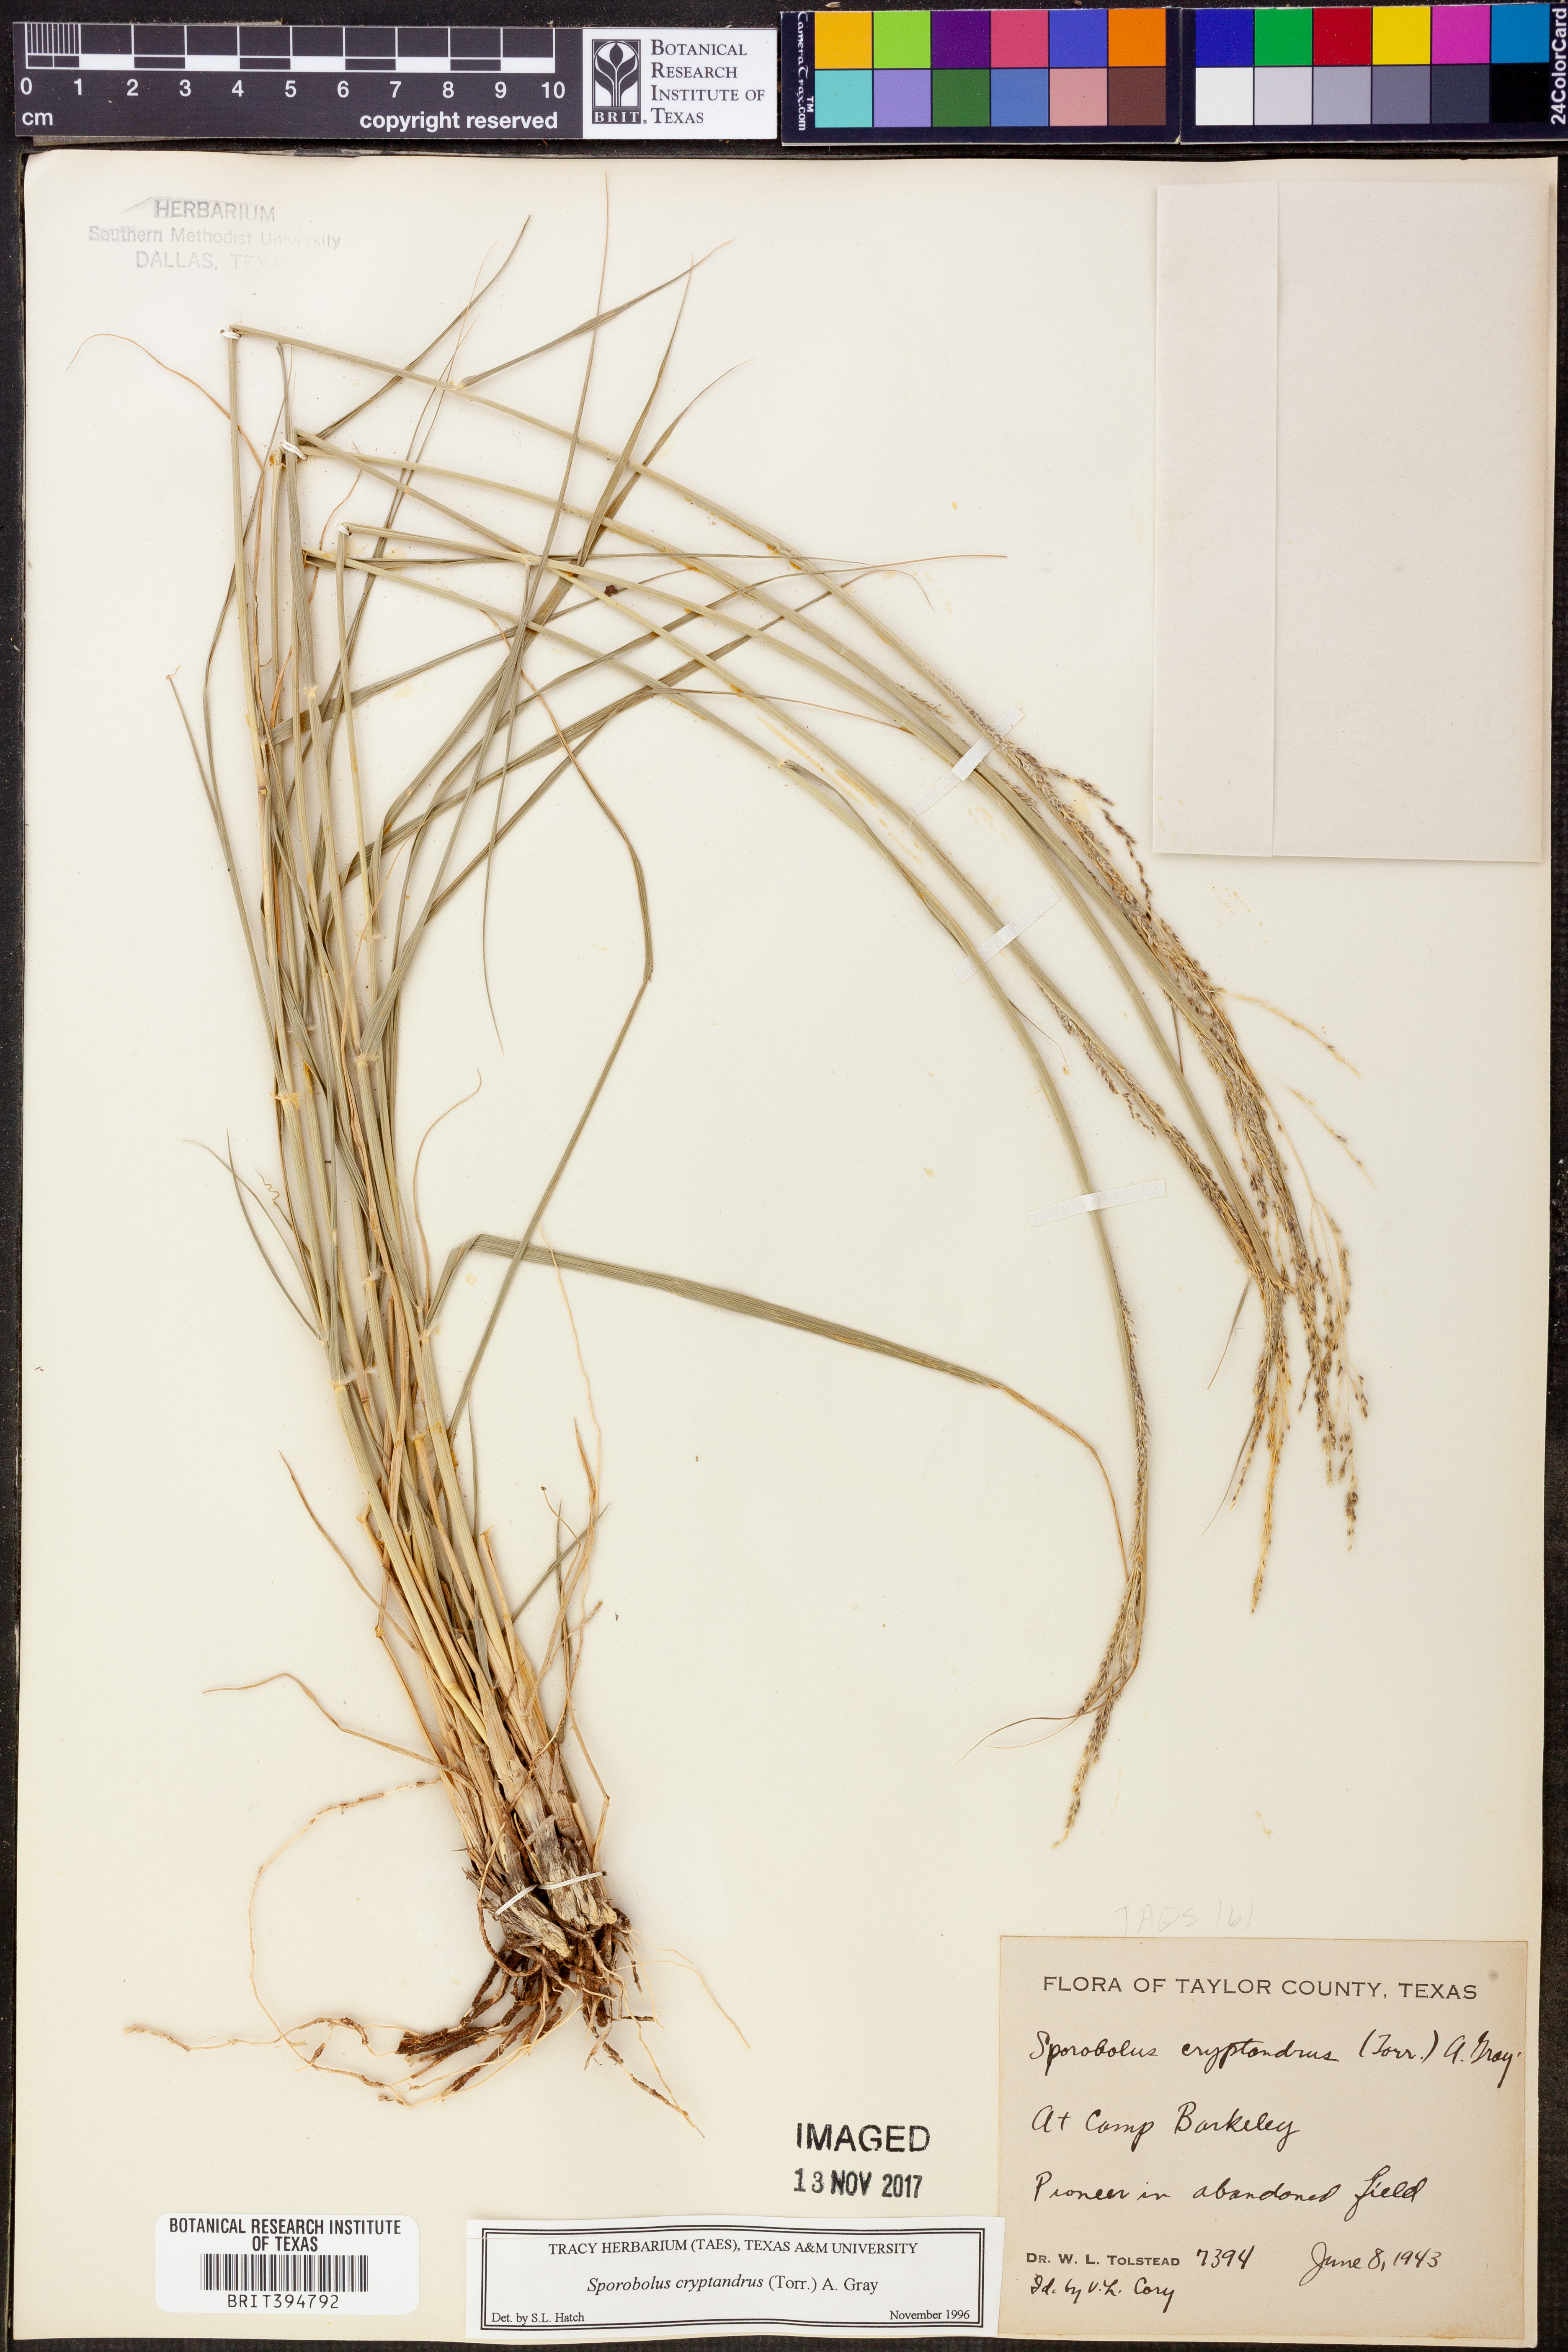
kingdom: Plantae
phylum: Tracheophyta
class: Liliopsida
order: Poales
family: Poaceae
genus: Sporobolus
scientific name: Sporobolus cryptandrus
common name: Sand dropseed
